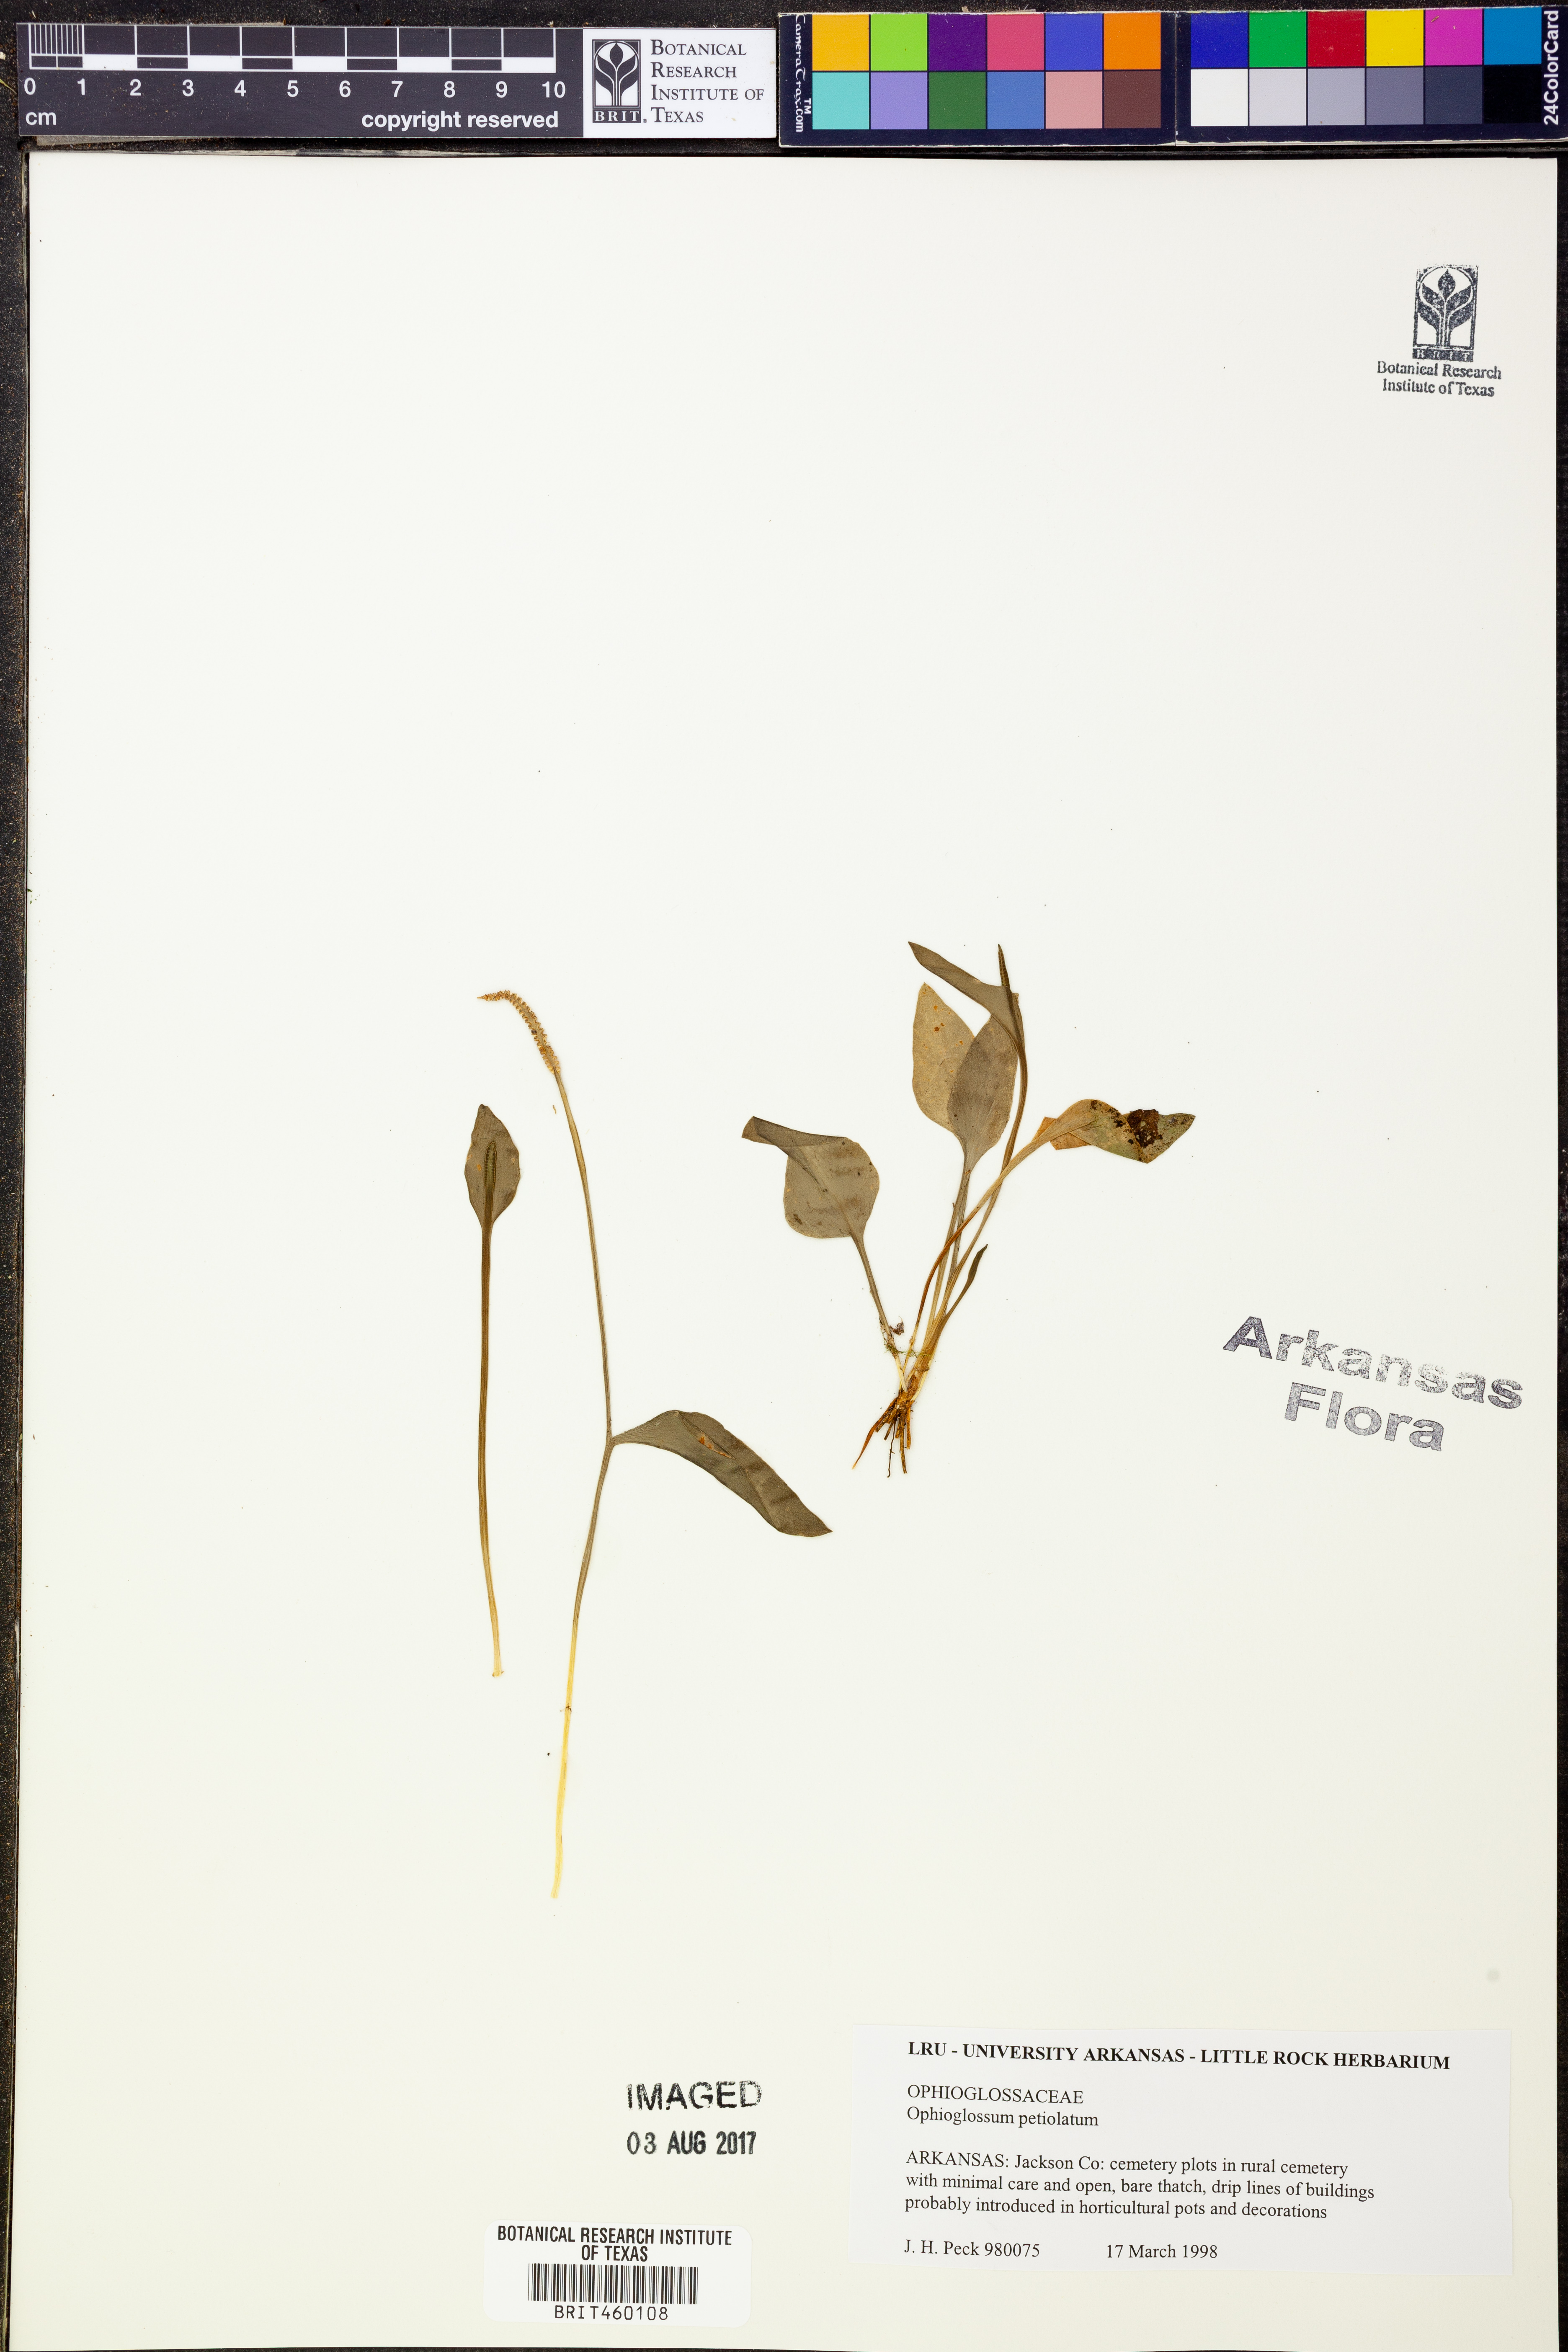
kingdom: Plantae
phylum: Tracheophyta
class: Polypodiopsida
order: Ophioglossales
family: Ophioglossaceae
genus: Ophioglossum
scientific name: Ophioglossum petiolatum
